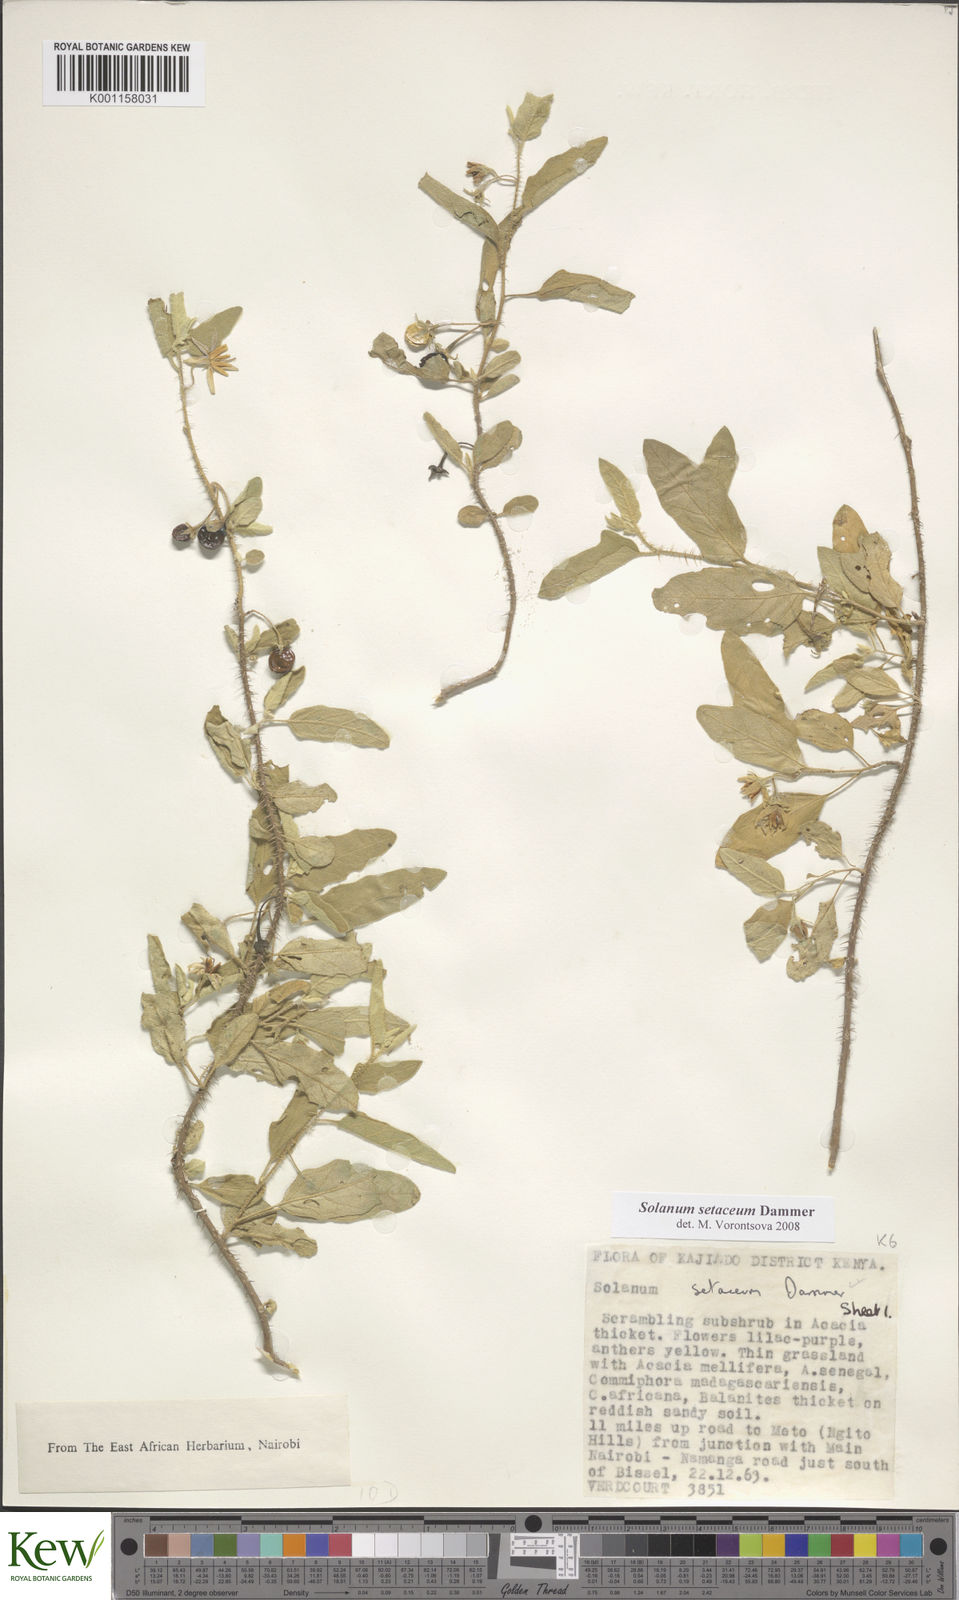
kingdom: Plantae
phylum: Tracheophyta
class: Magnoliopsida
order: Solanales
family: Solanaceae
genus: Solanum
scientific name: Solanum setaceum
